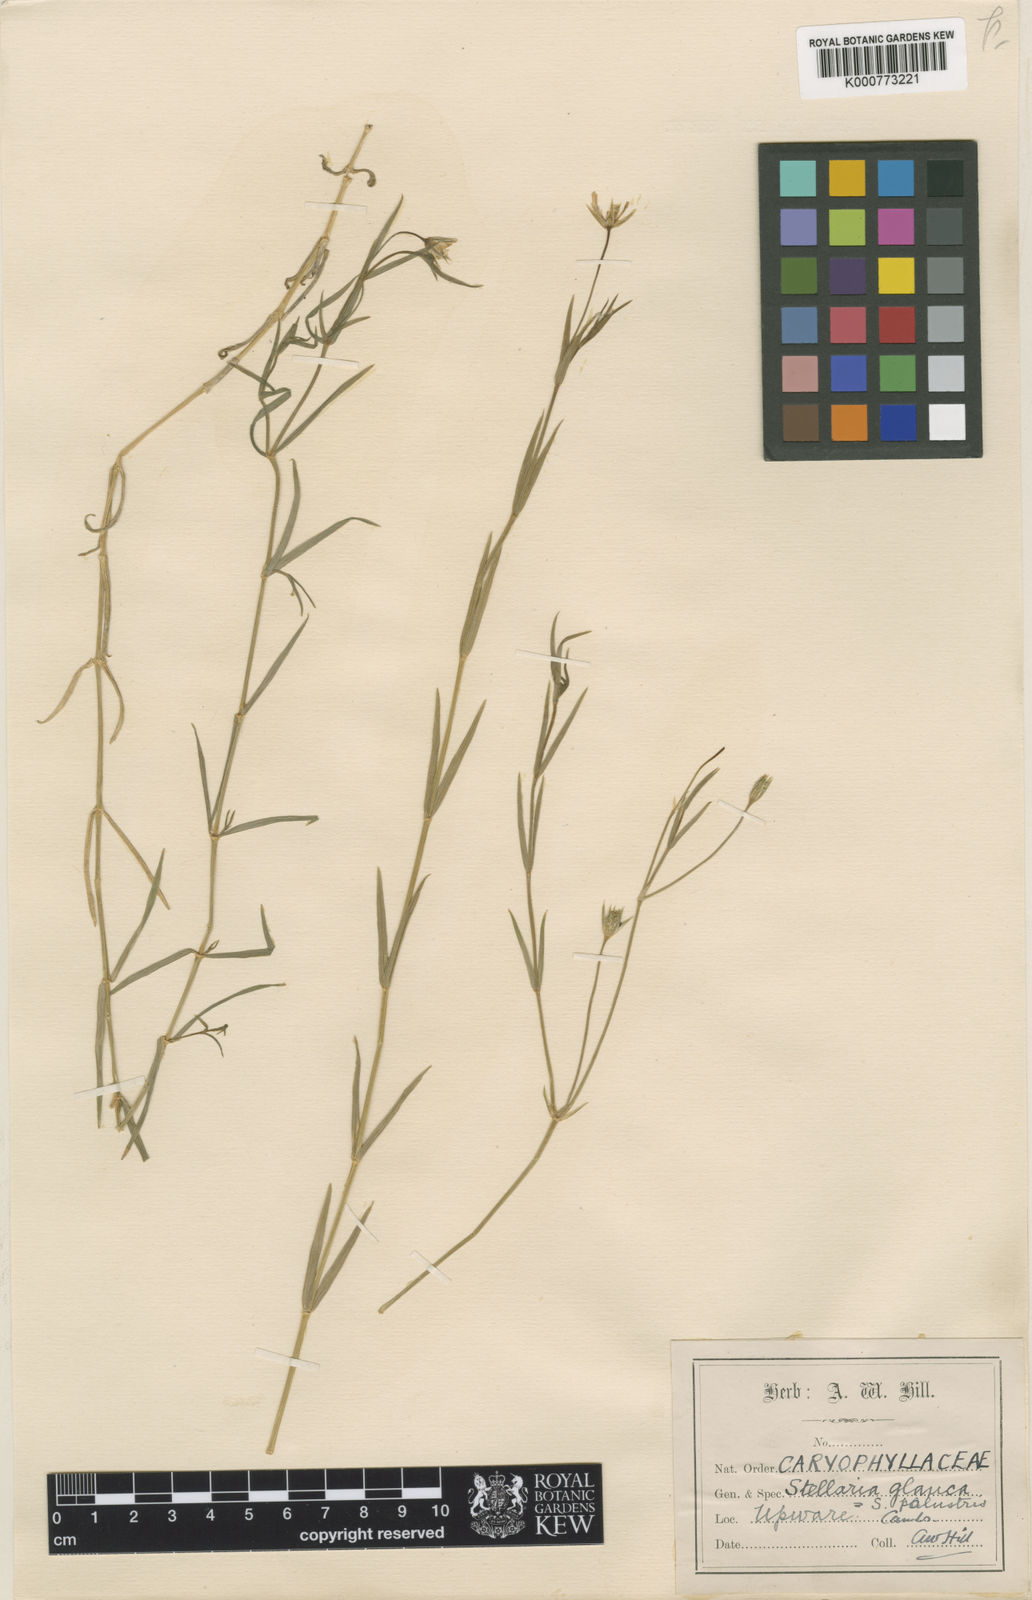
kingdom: Plantae
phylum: Tracheophyta
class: Magnoliopsida
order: Caryophyllales
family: Caryophyllaceae
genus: Stellaria
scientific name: Stellaria
